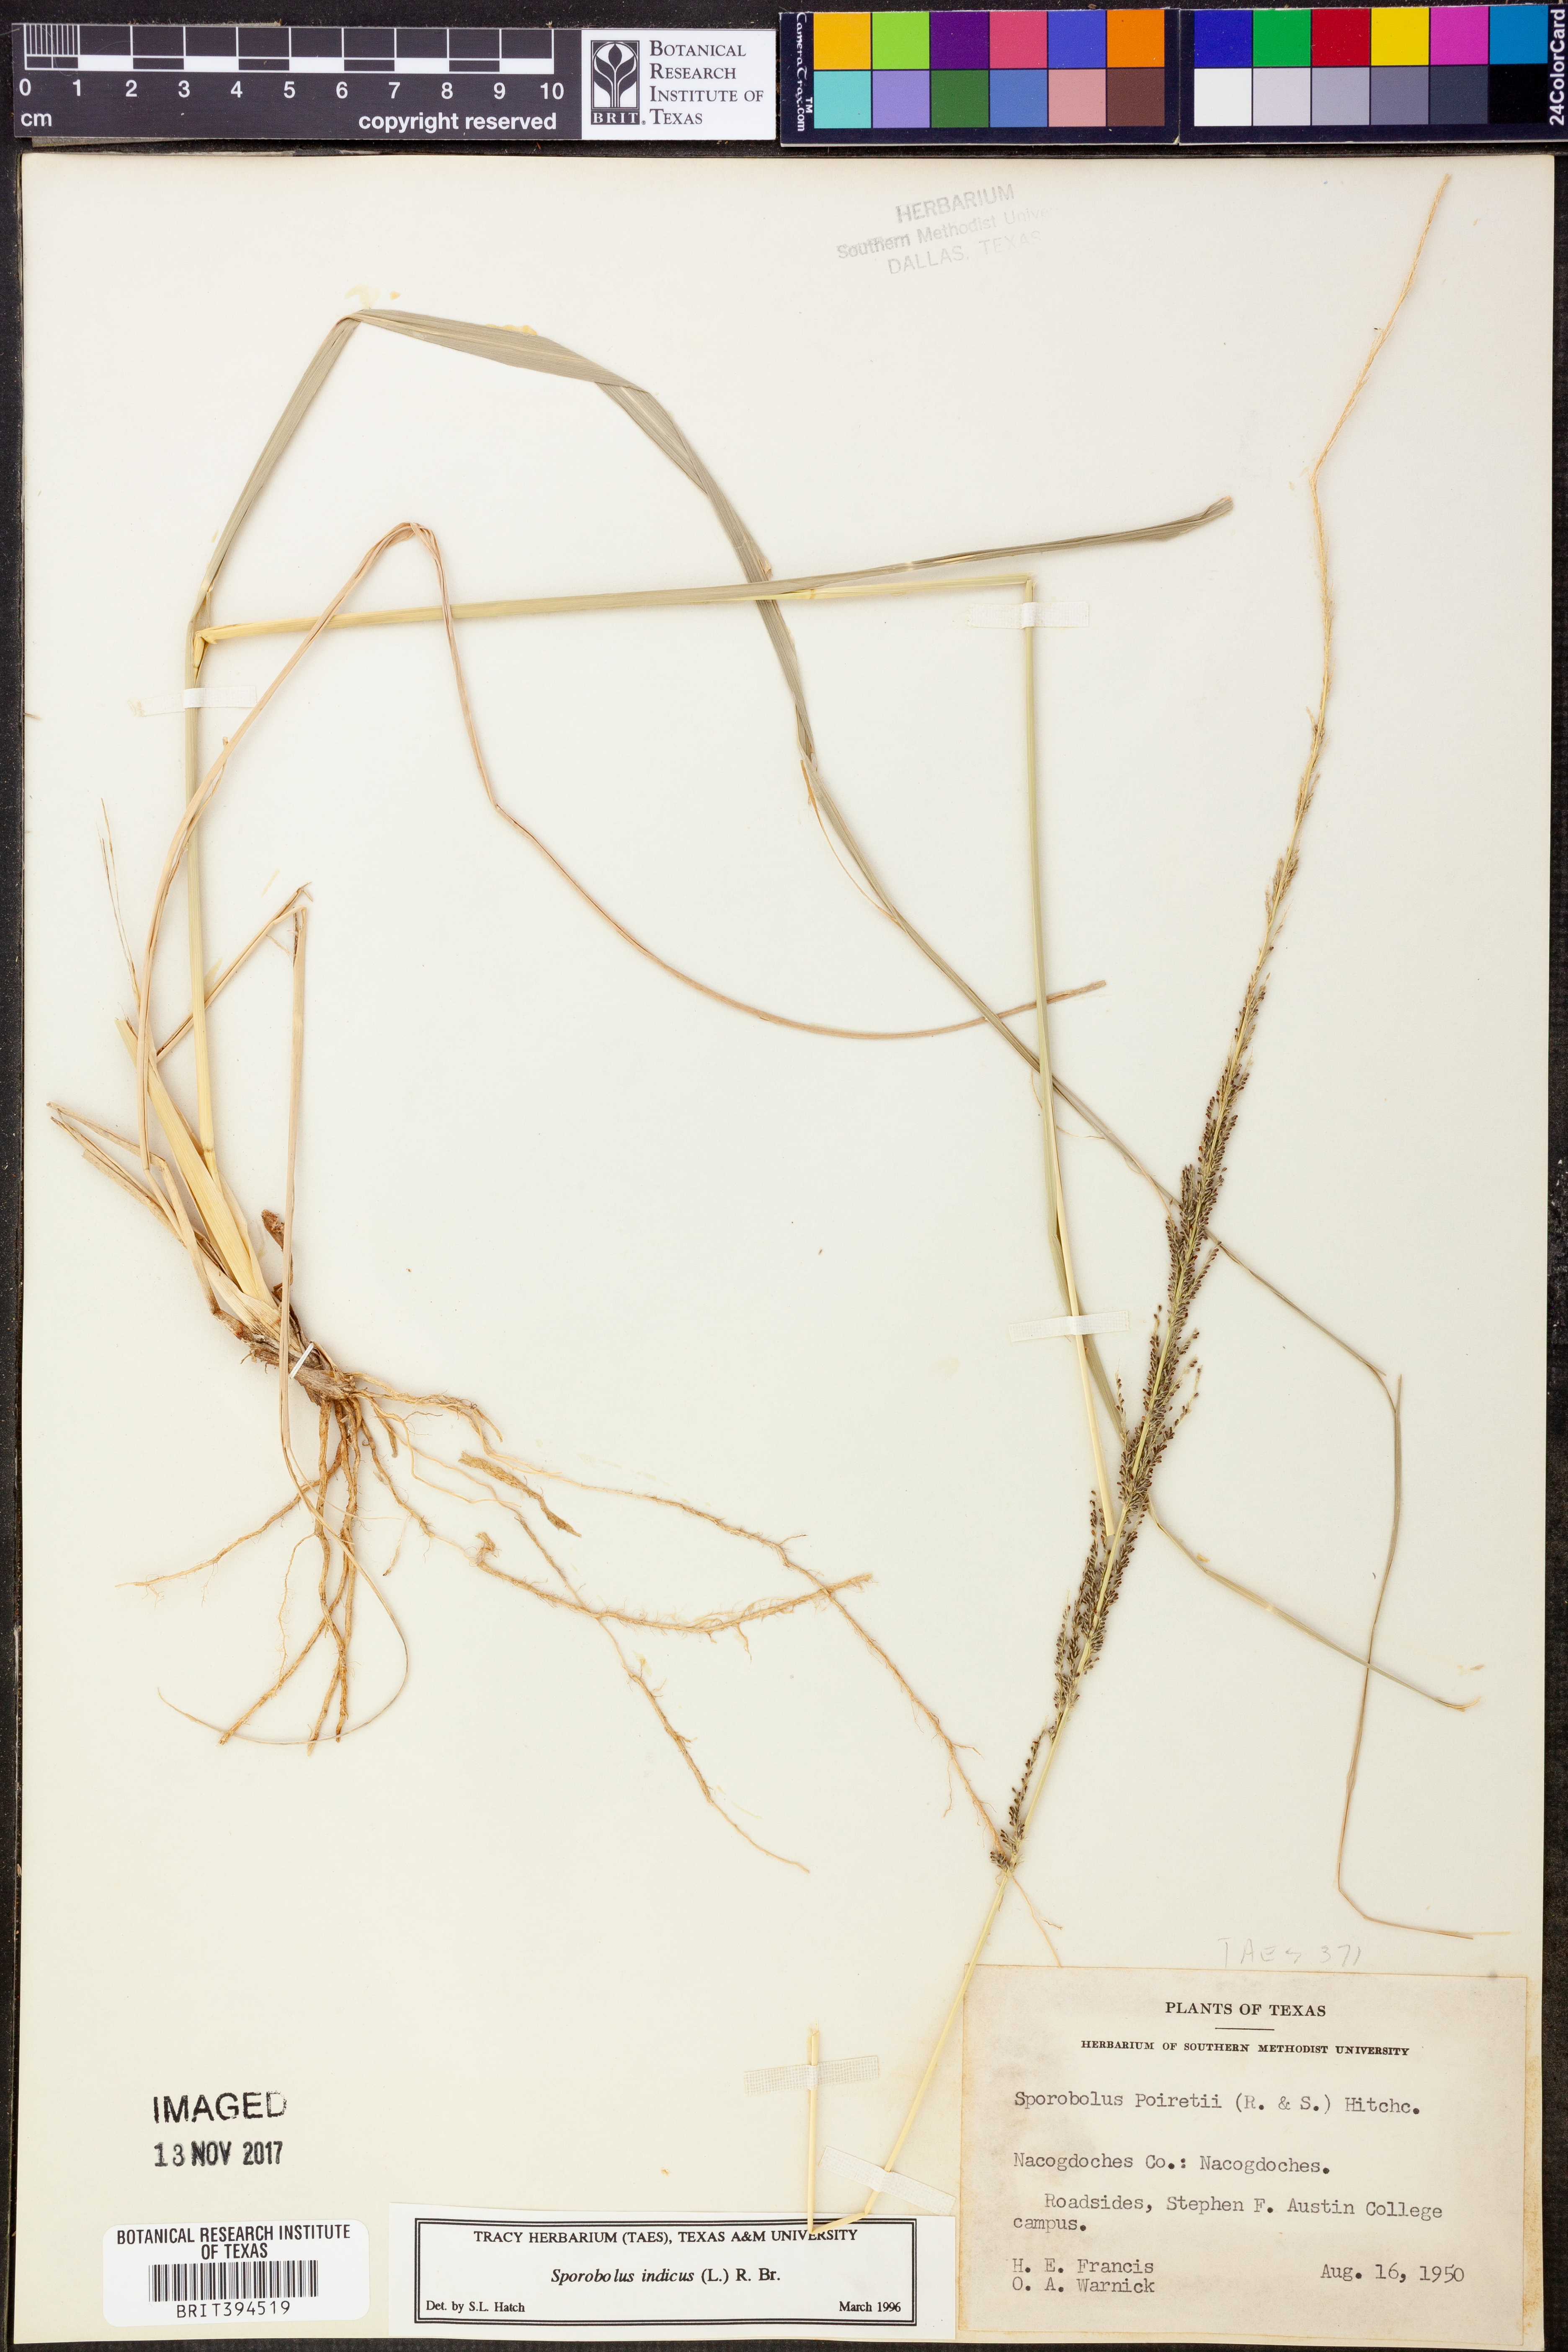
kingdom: Plantae
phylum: Tracheophyta
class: Liliopsida
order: Poales
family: Poaceae
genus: Sporobolus
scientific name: Sporobolus junceus
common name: Lizard grass
